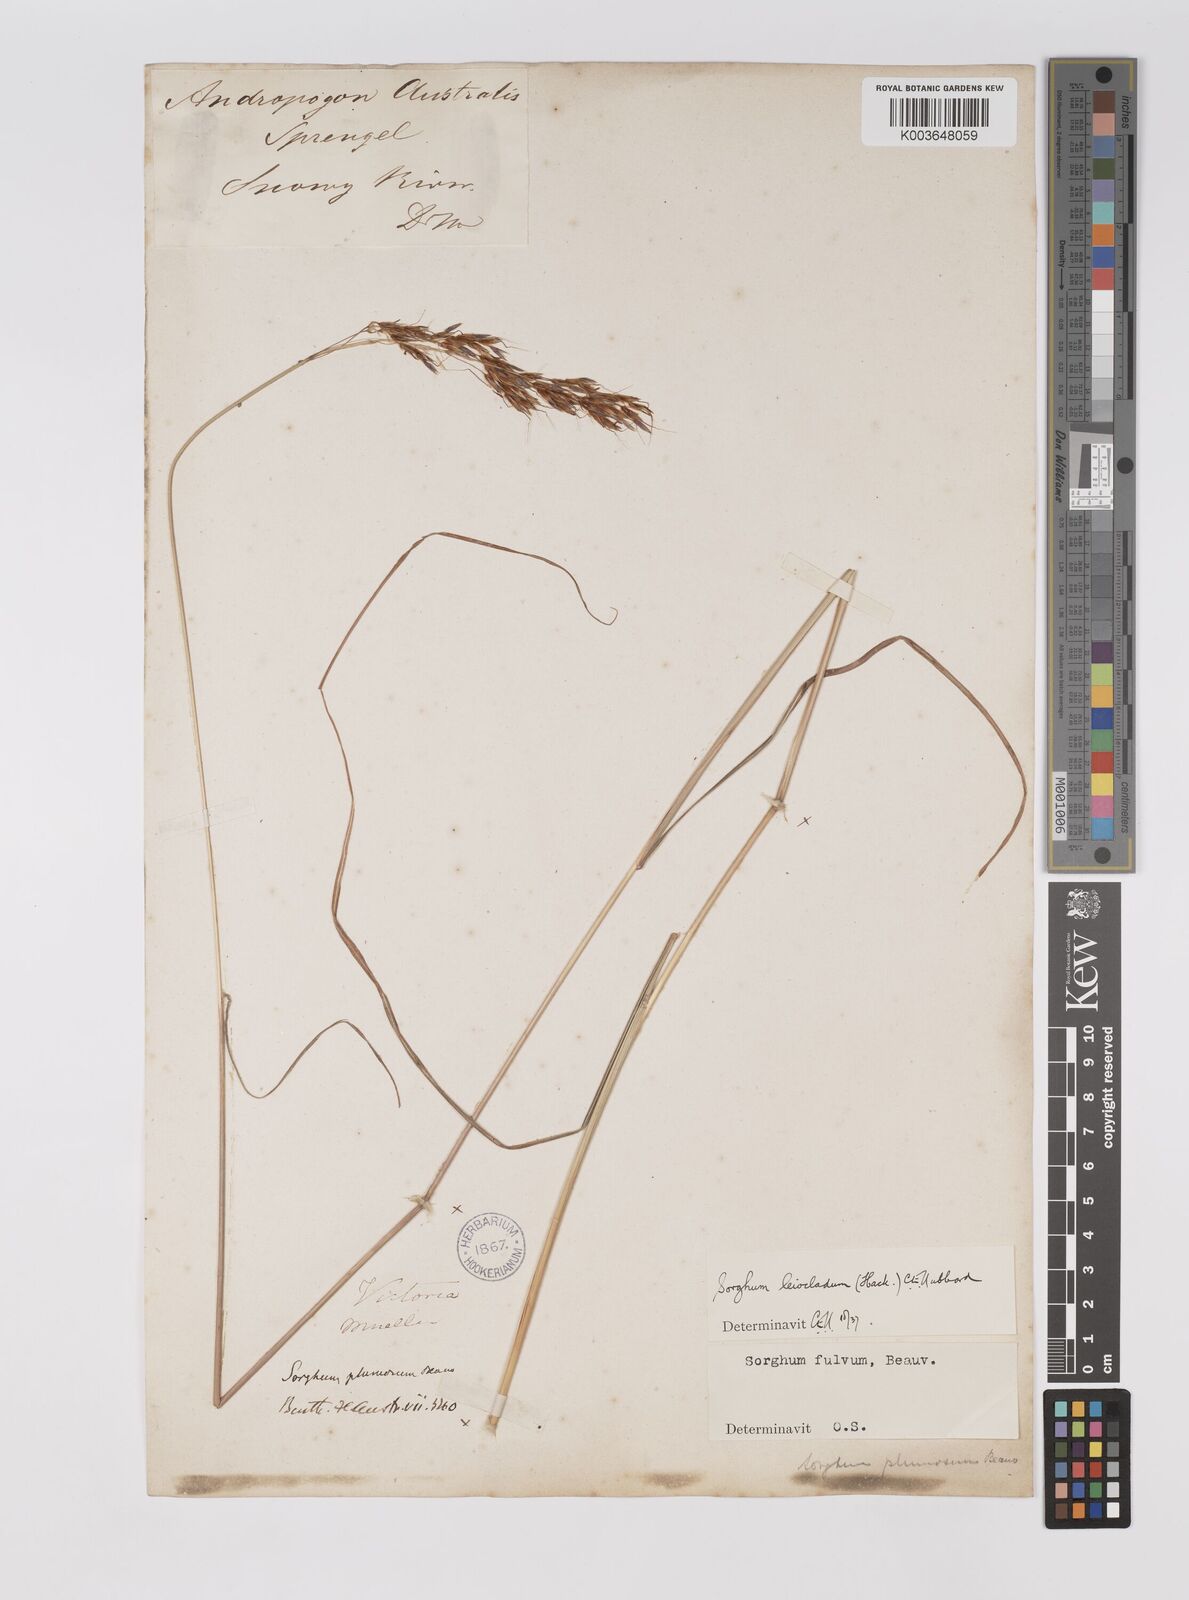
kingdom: Plantae
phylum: Tracheophyta
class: Liliopsida
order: Poales
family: Poaceae
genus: Sarga
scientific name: Sarga leioclada
